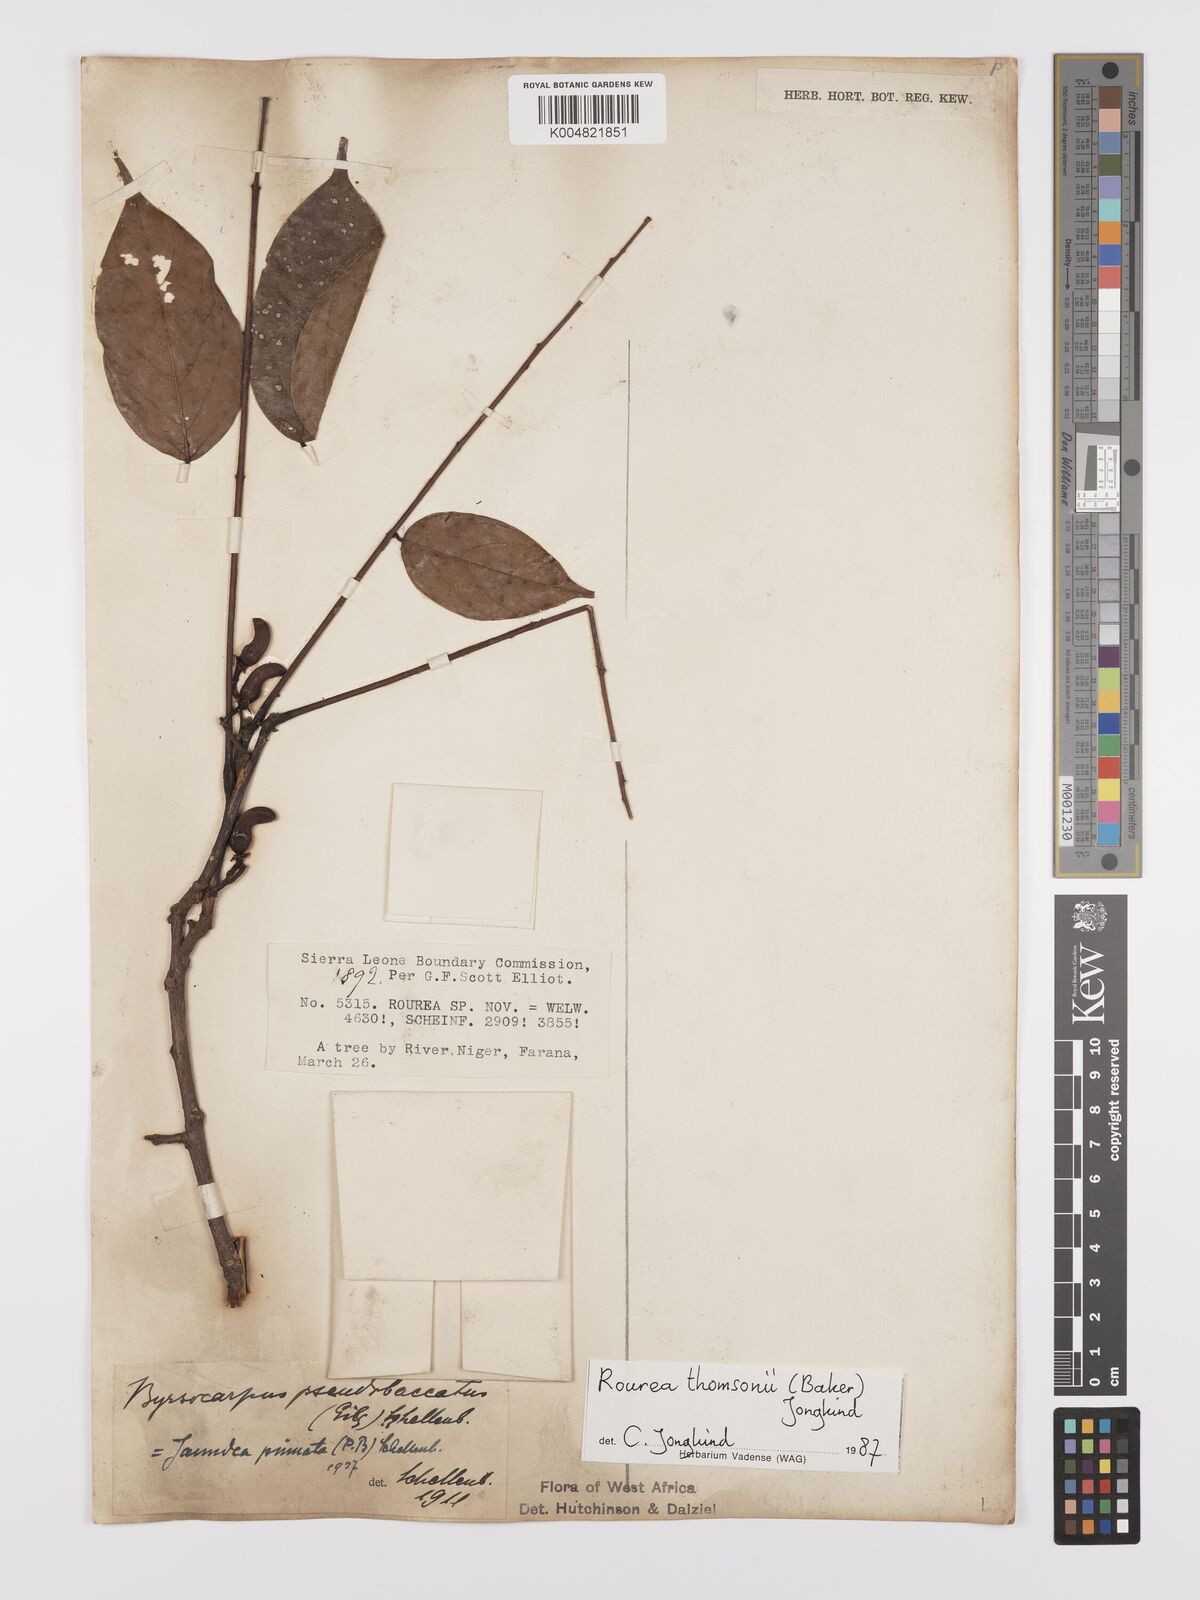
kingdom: Plantae
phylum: Tracheophyta
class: Magnoliopsida
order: Oxalidales
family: Connaraceae
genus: Rourea
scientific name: Rourea pinnata
